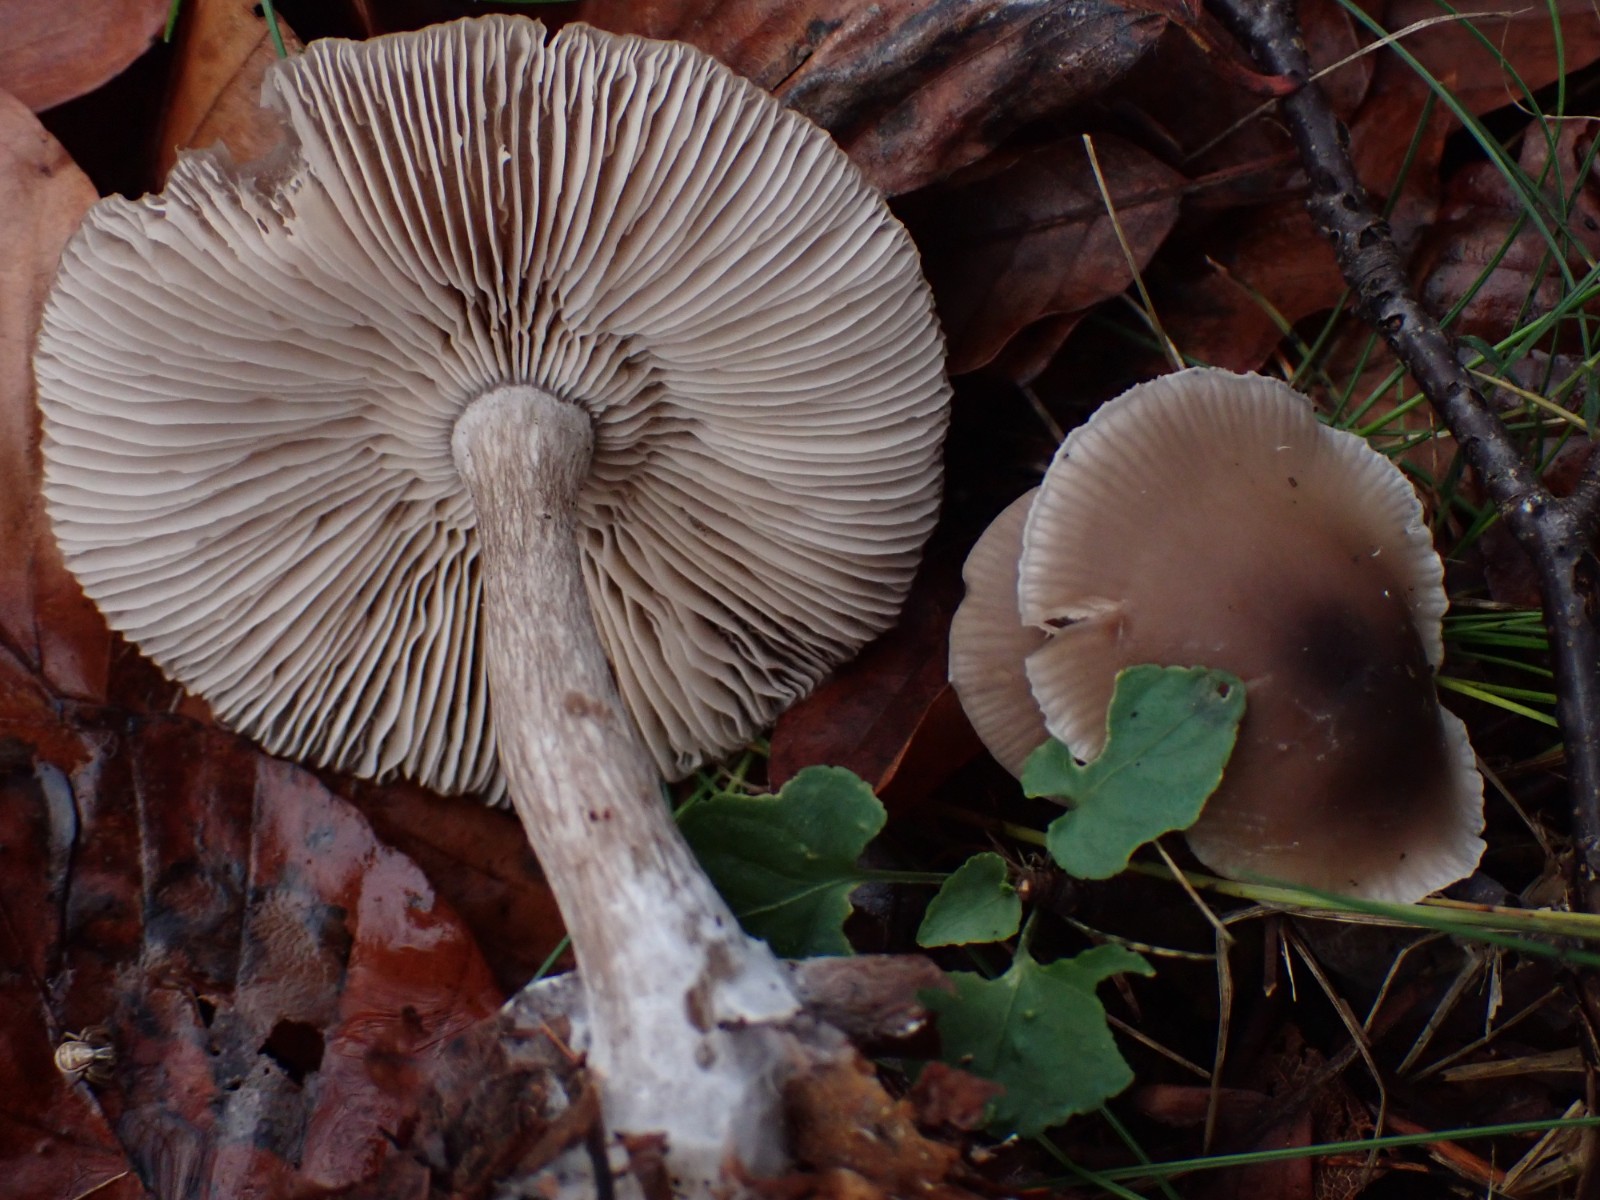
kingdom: Fungi
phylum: Basidiomycota
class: Agaricomycetes
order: Agaricales
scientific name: Agaricales
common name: champignonordenen
